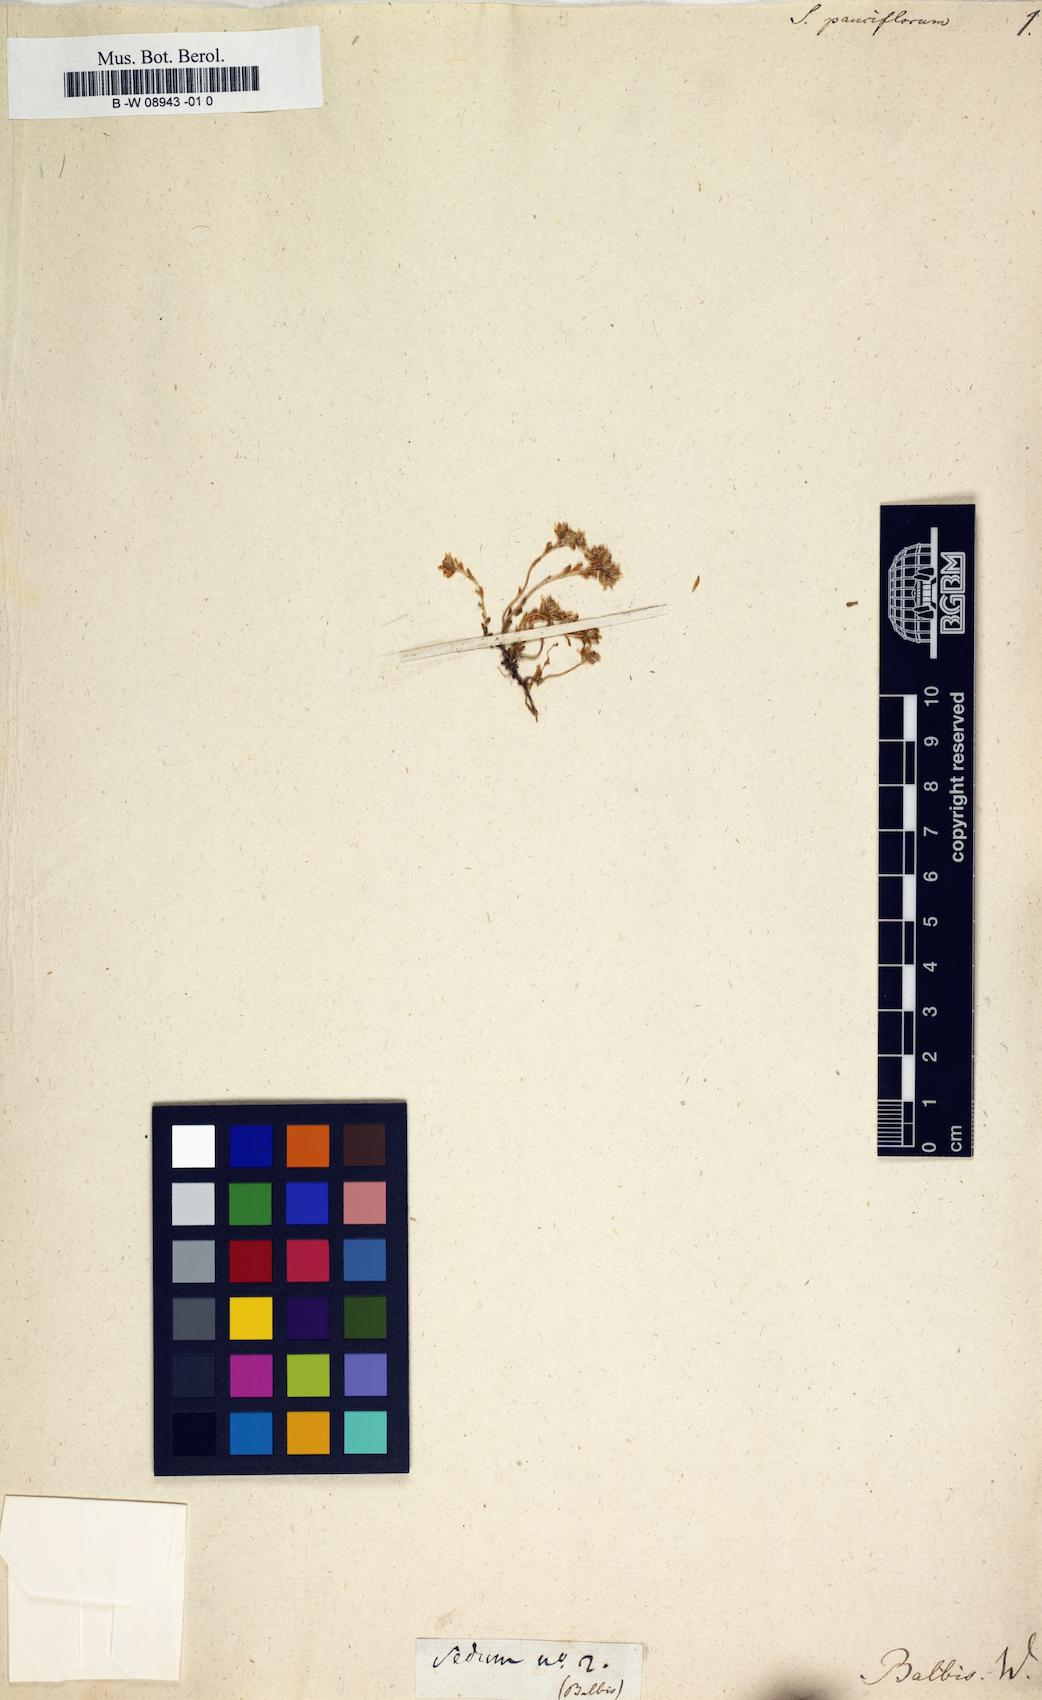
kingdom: Plantae
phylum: Tracheophyta
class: Magnoliopsida
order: Saxifragales
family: Crassulaceae
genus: Rhodiola
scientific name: Rhodiola sinuata
